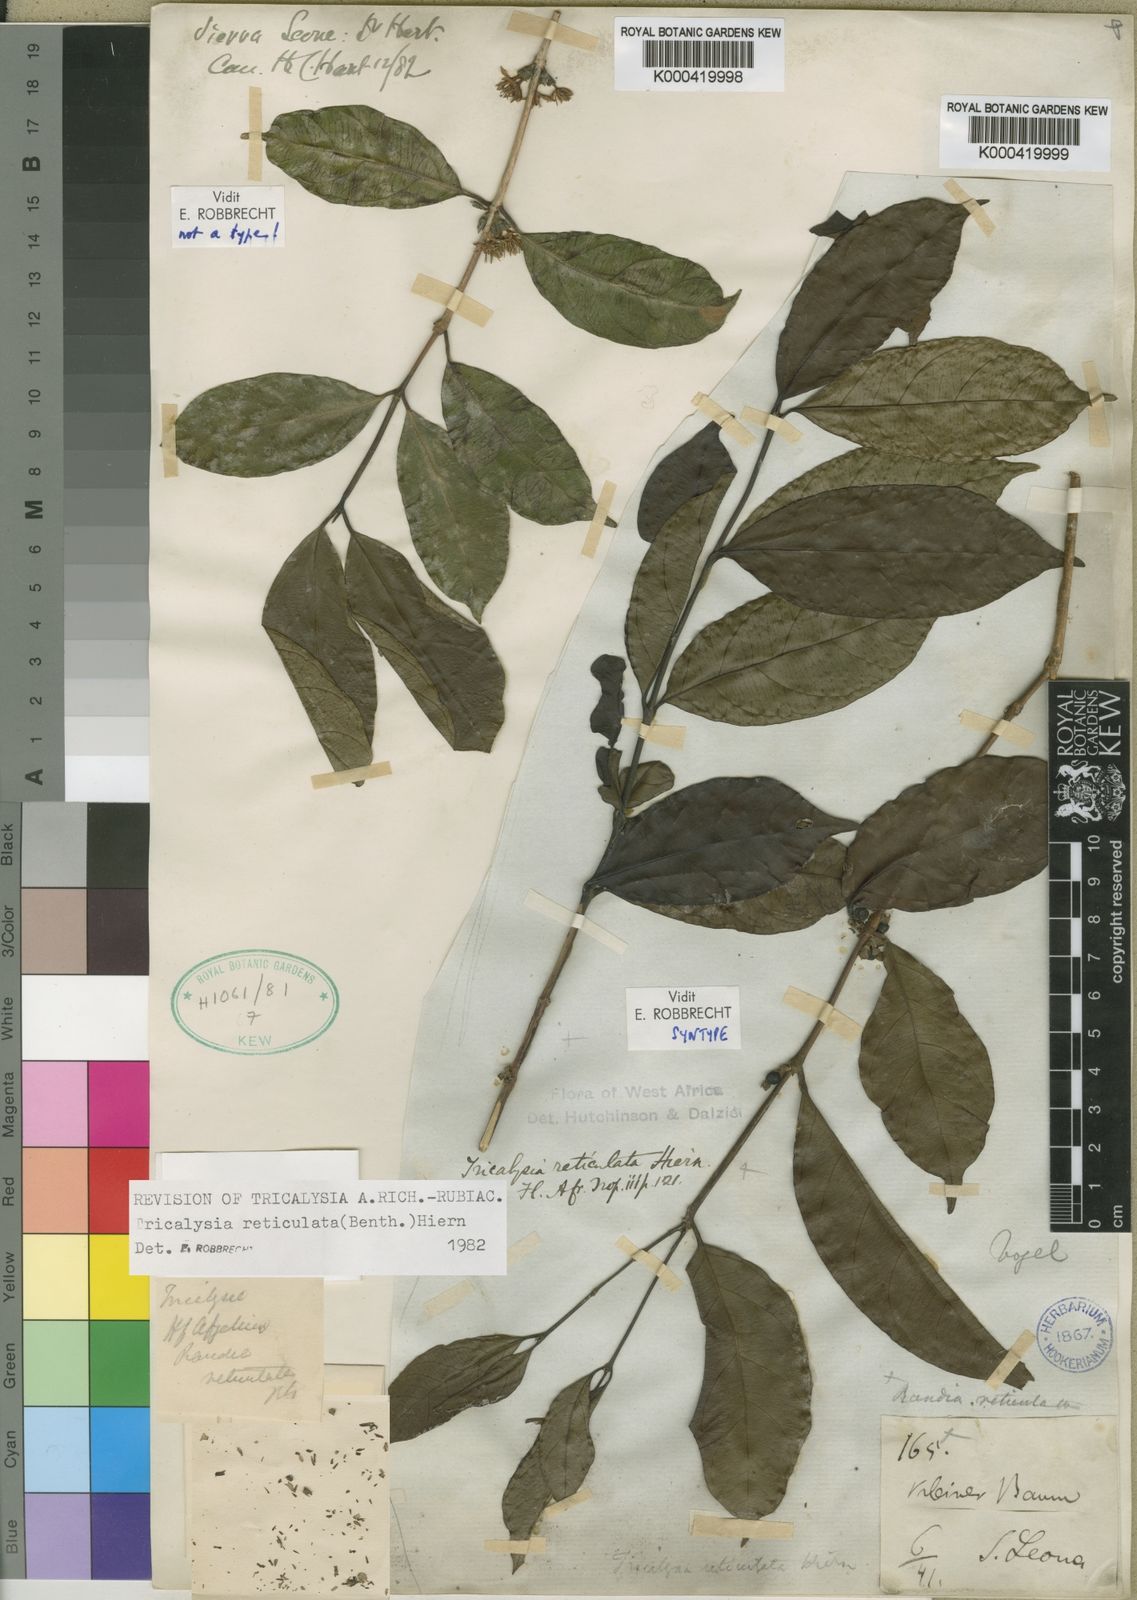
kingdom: Plantae
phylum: Tracheophyta
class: Magnoliopsida
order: Gentianales
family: Rubiaceae
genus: Tricalysia
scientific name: Tricalysia reticulata
